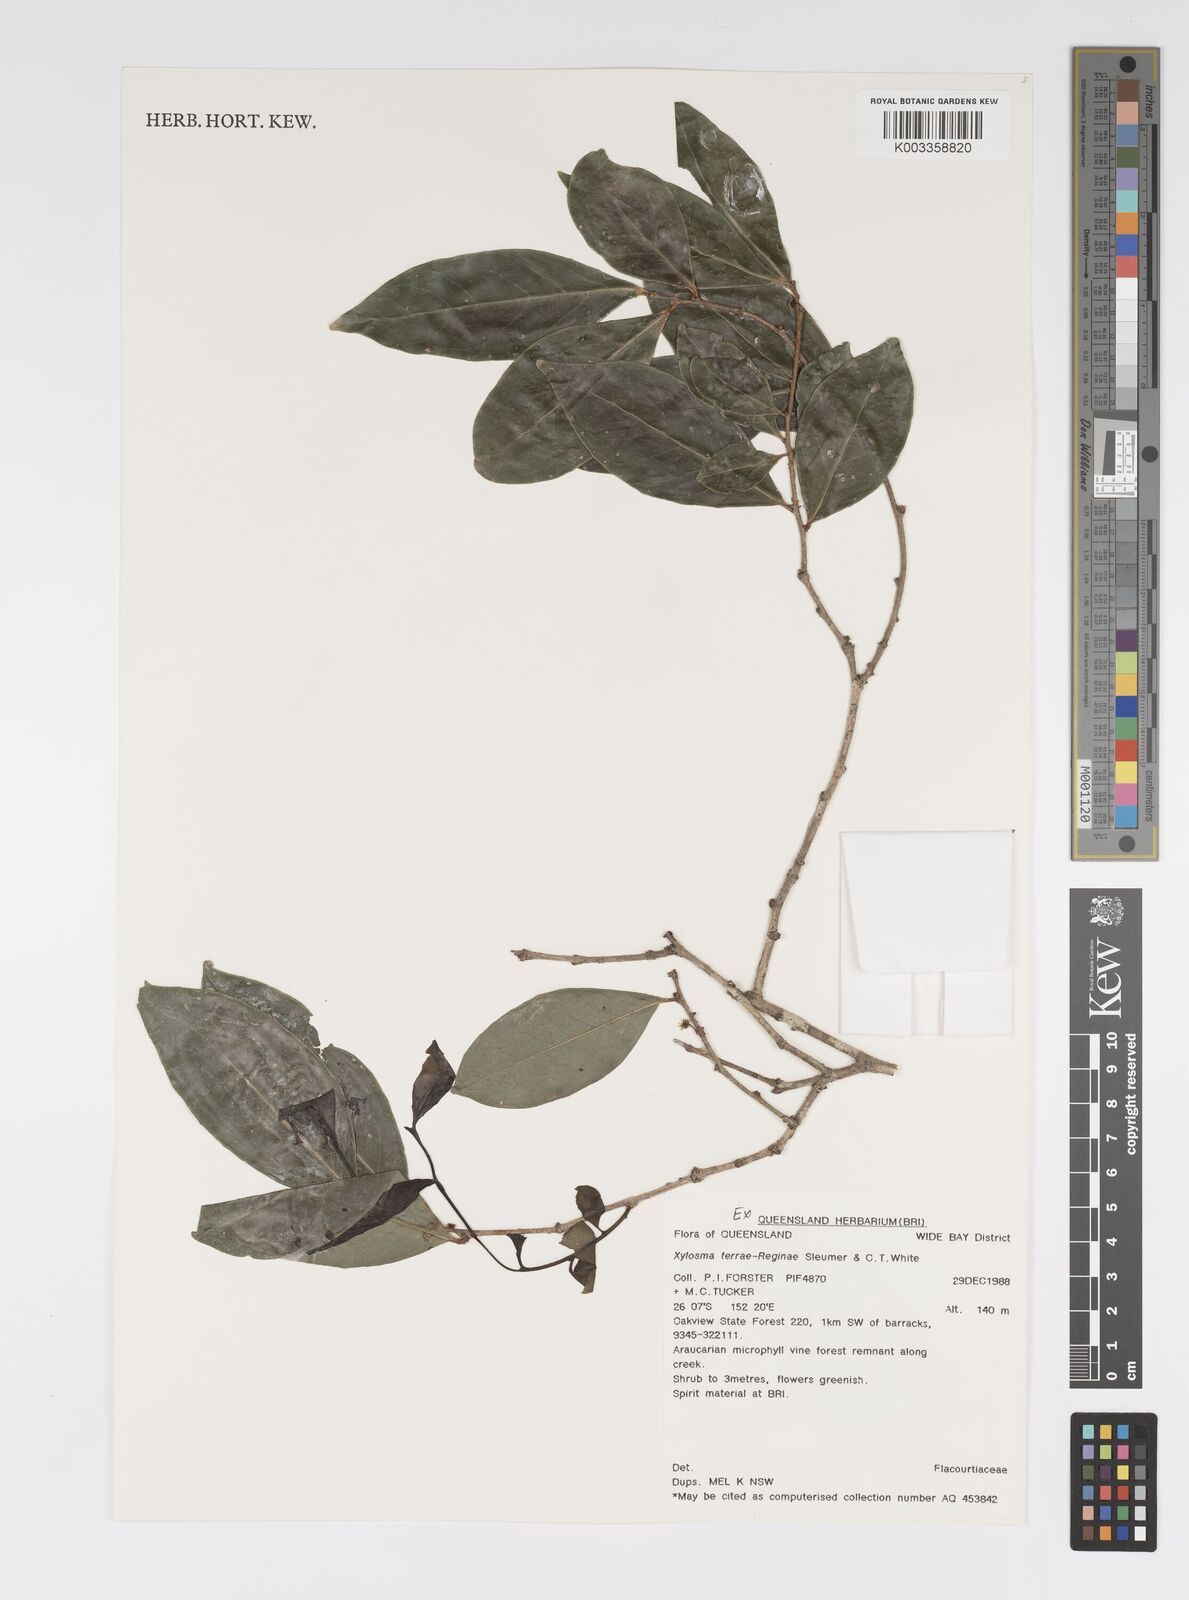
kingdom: Plantae
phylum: Tracheophyta
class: Magnoliopsida
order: Malpighiales
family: Salicaceae
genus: Xylosma
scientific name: Xylosma terrae-reginae
